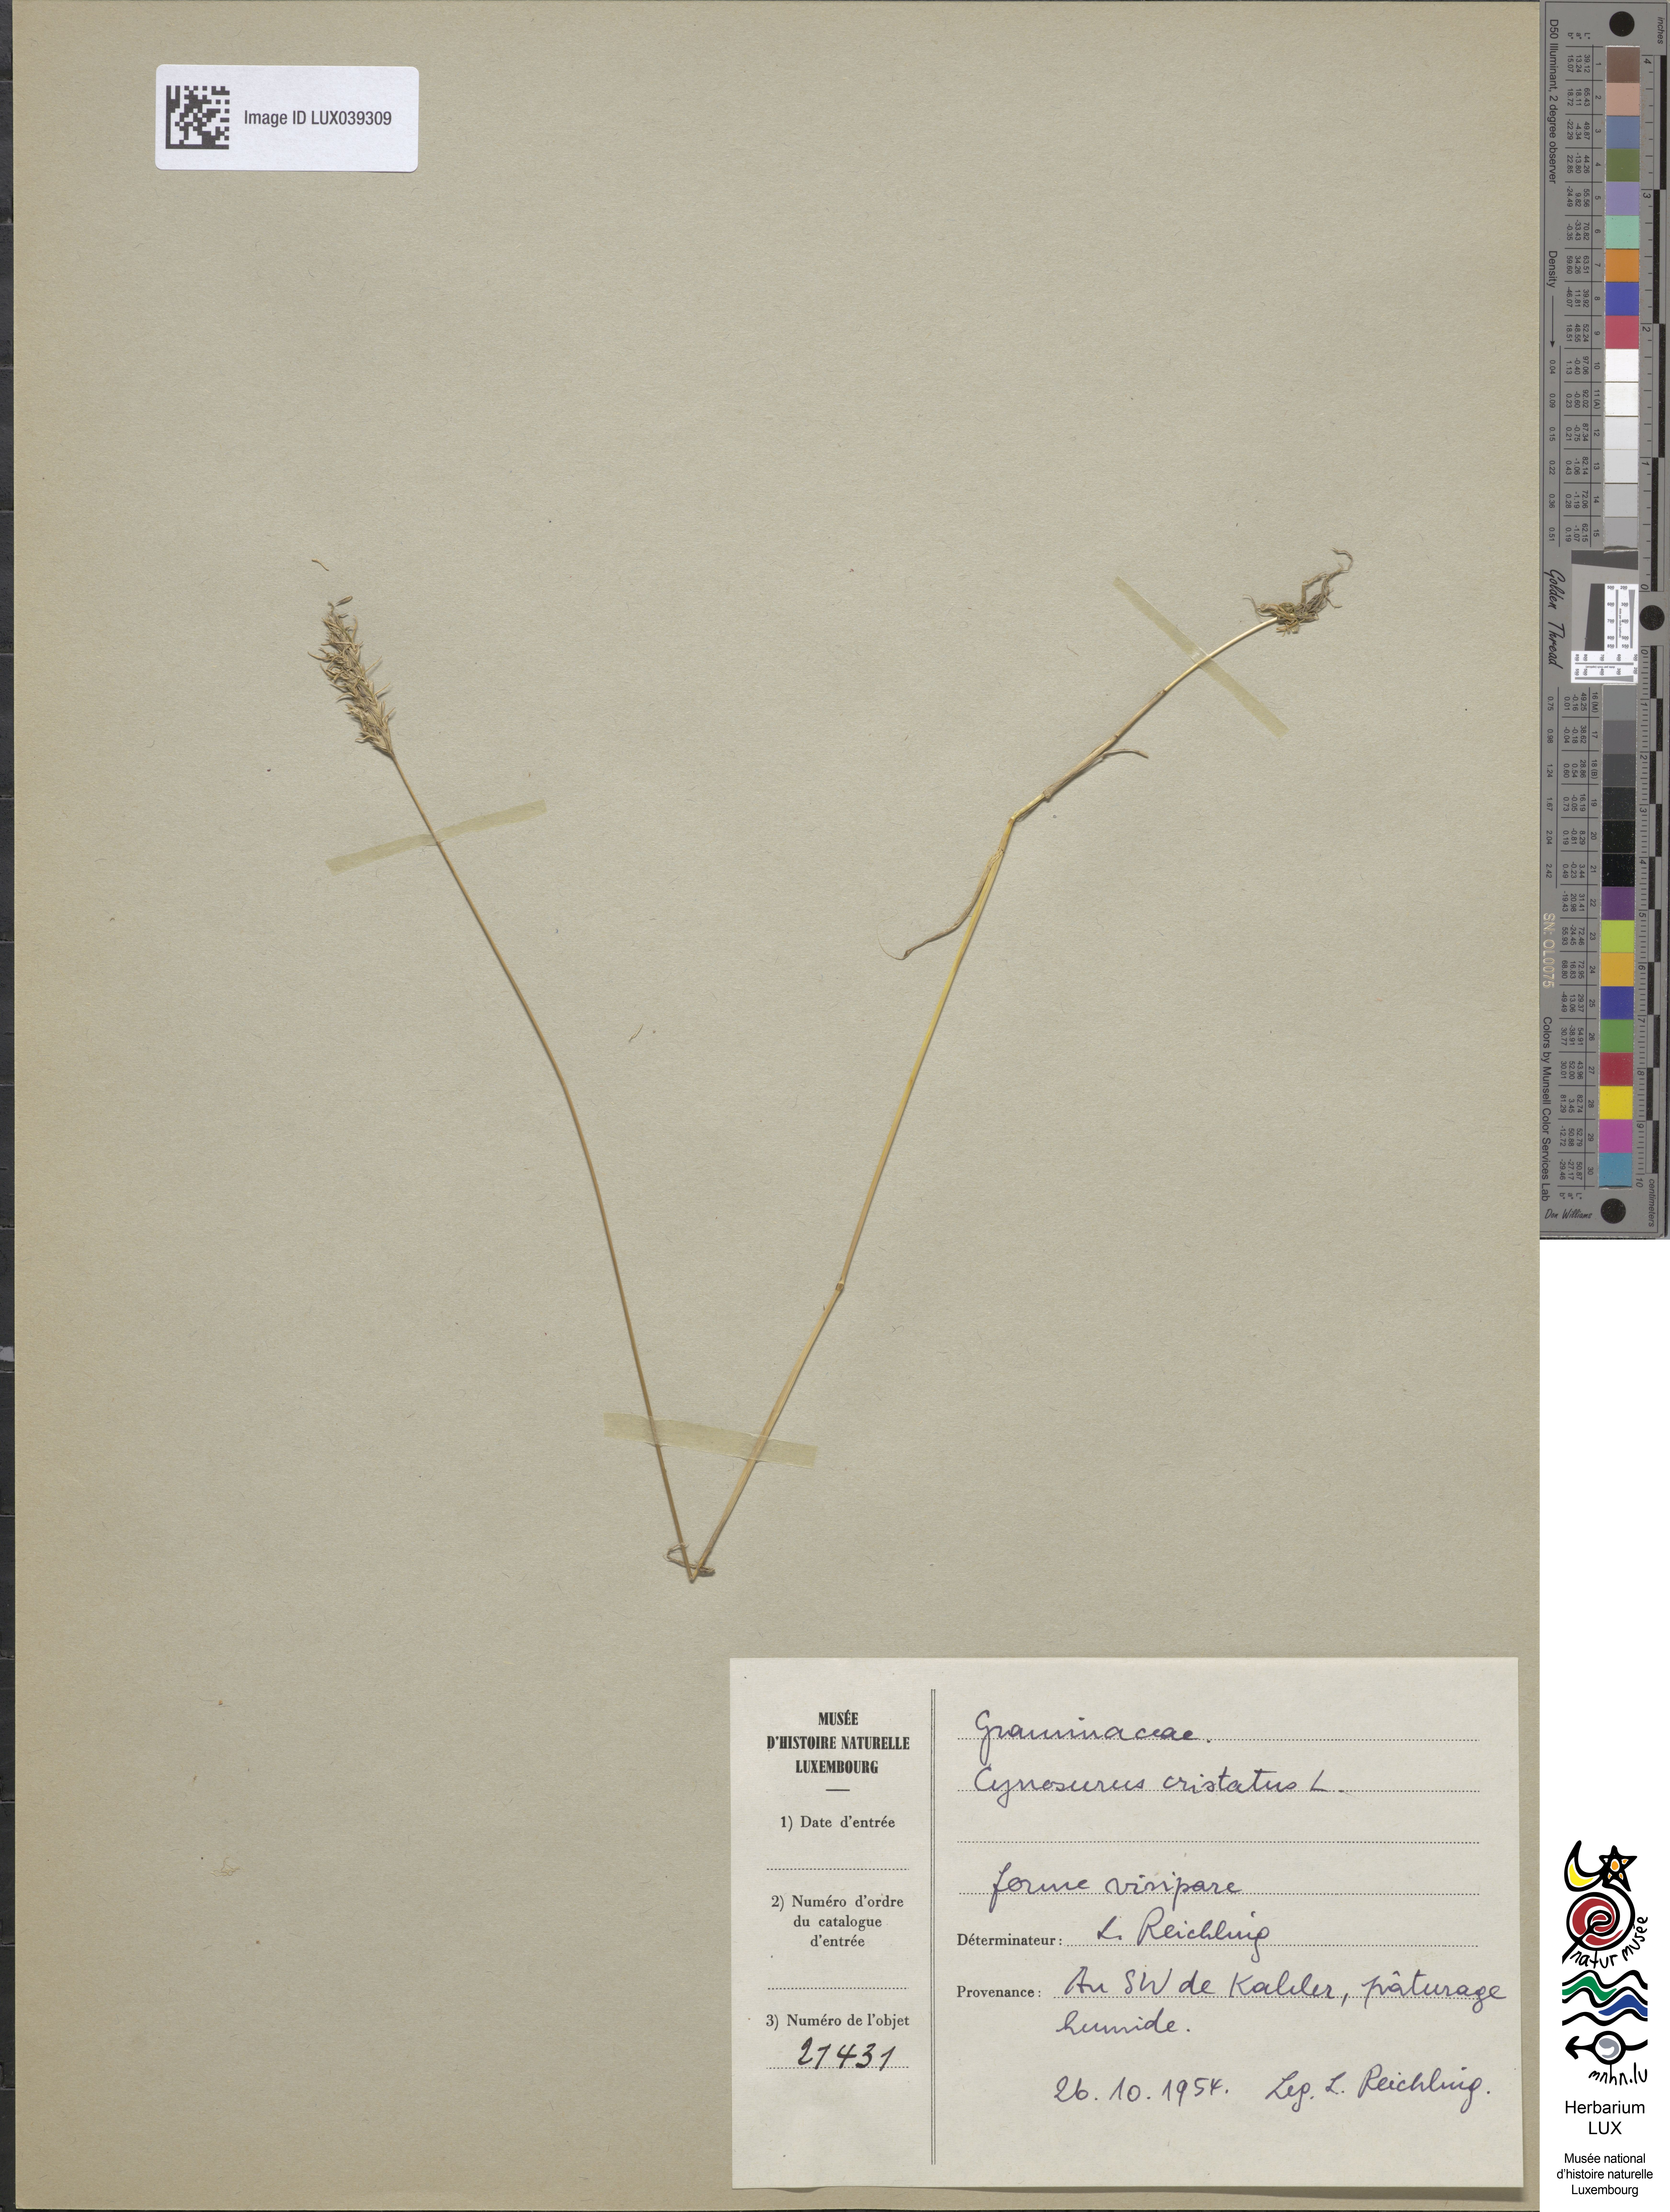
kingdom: Plantae
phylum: Tracheophyta
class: Liliopsida
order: Poales
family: Poaceae
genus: Cynosurus
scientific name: Cynosurus cristatus
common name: Crested dog's-tail
